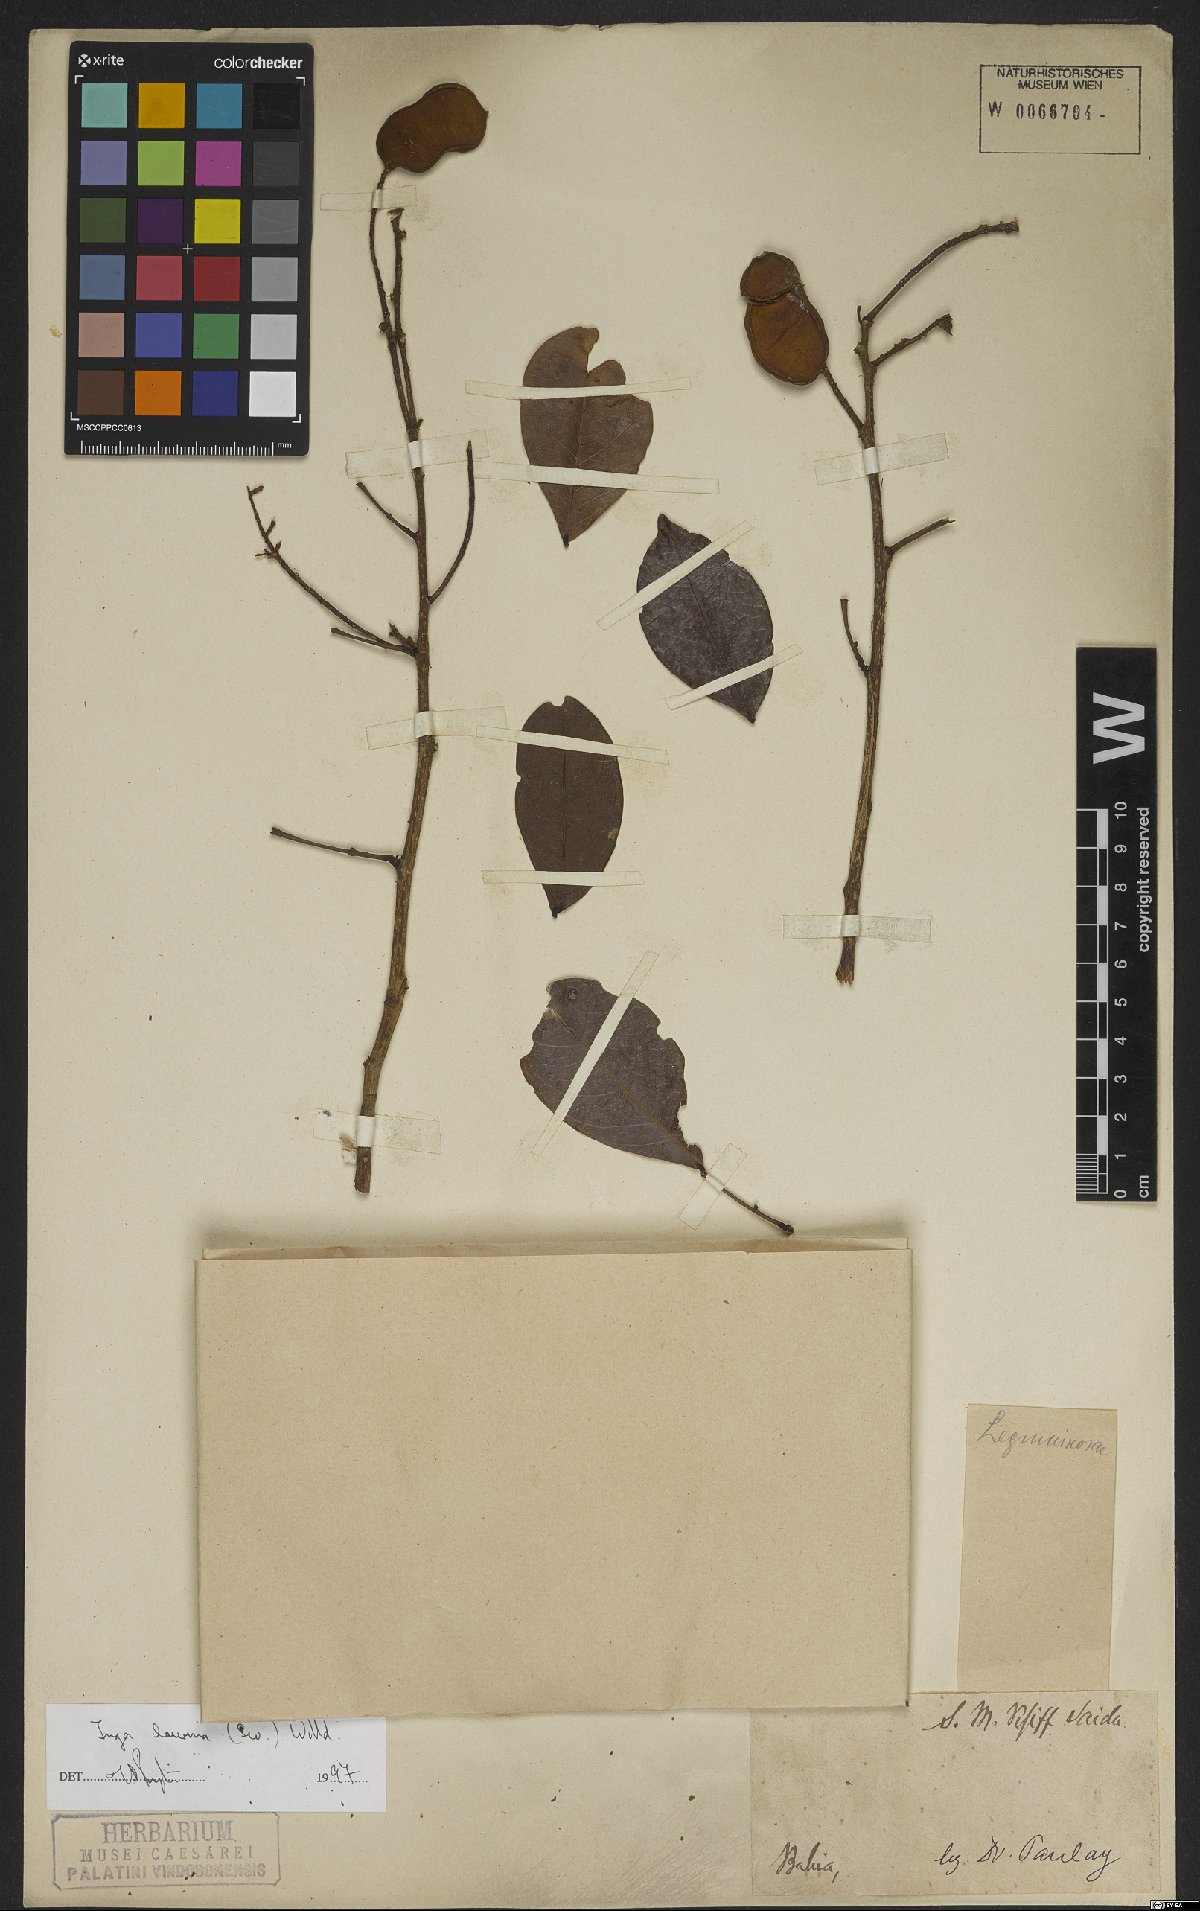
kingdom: Plantae
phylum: Tracheophyta
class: Magnoliopsida
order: Fabales
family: Fabaceae
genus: Inga
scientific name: Inga laurina
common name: Red wood
